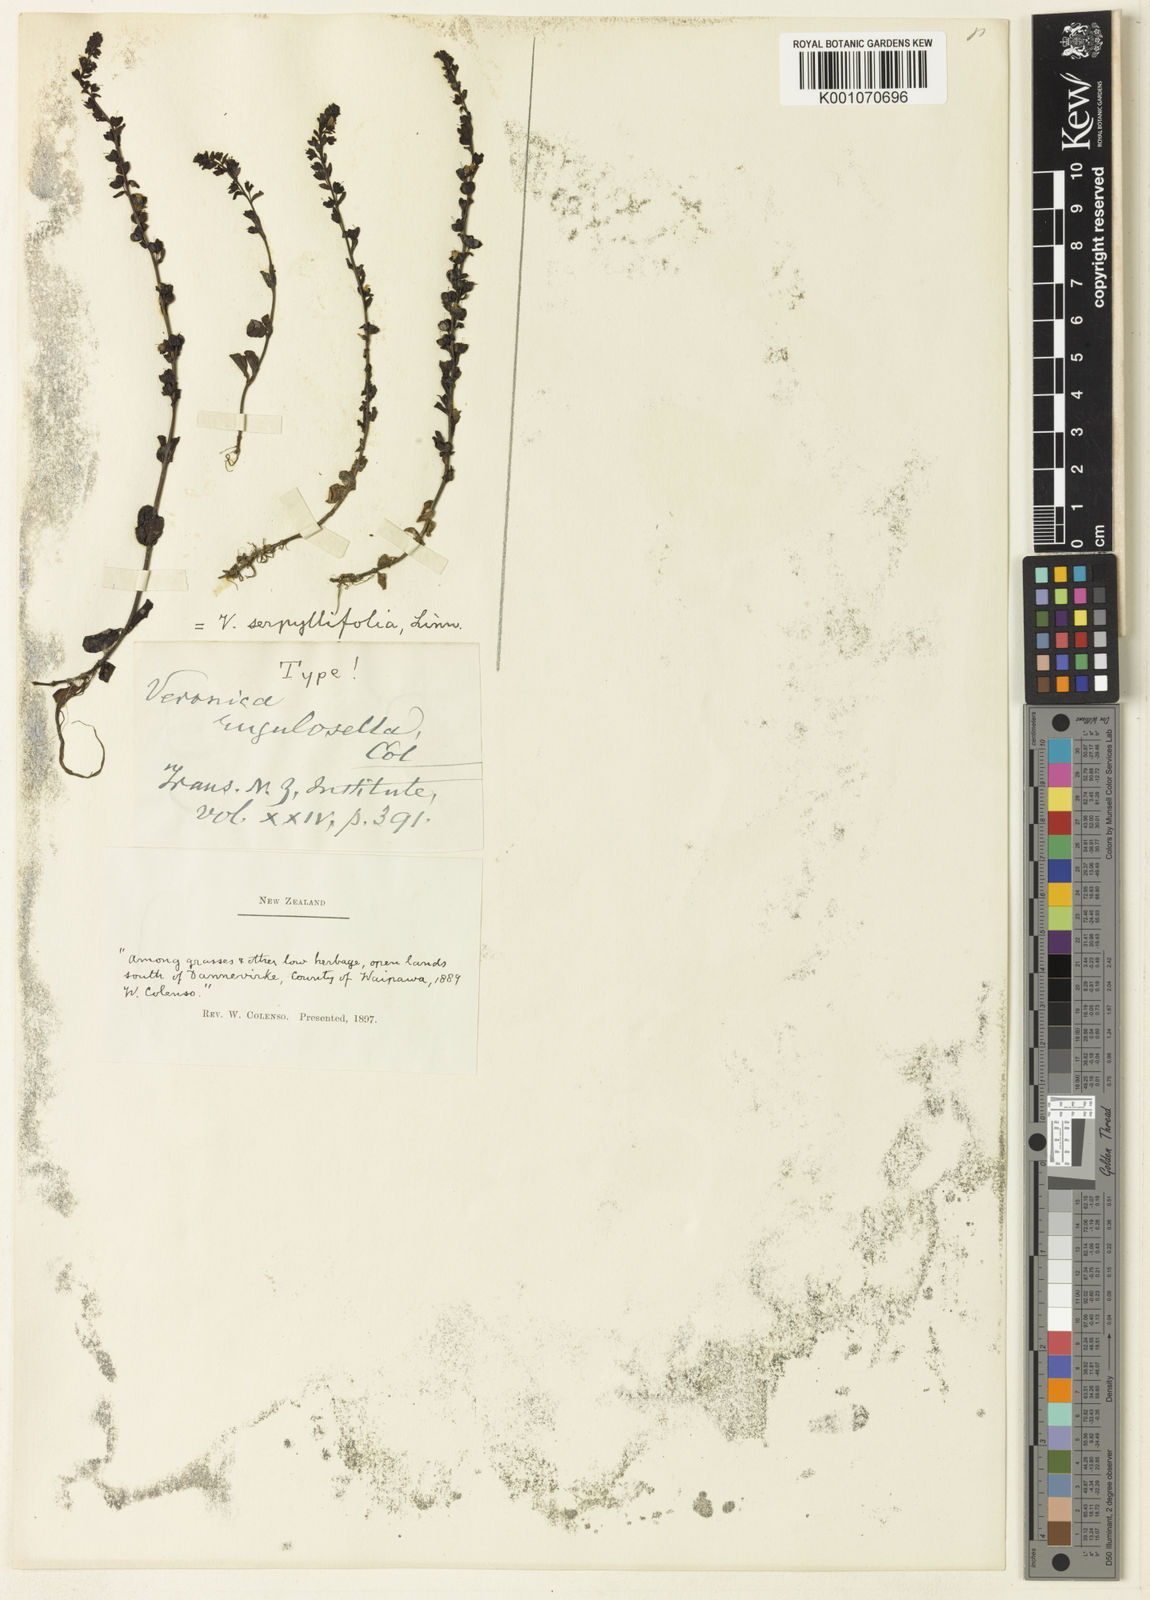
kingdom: Plantae
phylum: Tracheophyta
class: Magnoliopsida
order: Lamiales
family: Plantaginaceae
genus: Veronica
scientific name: Veronica
